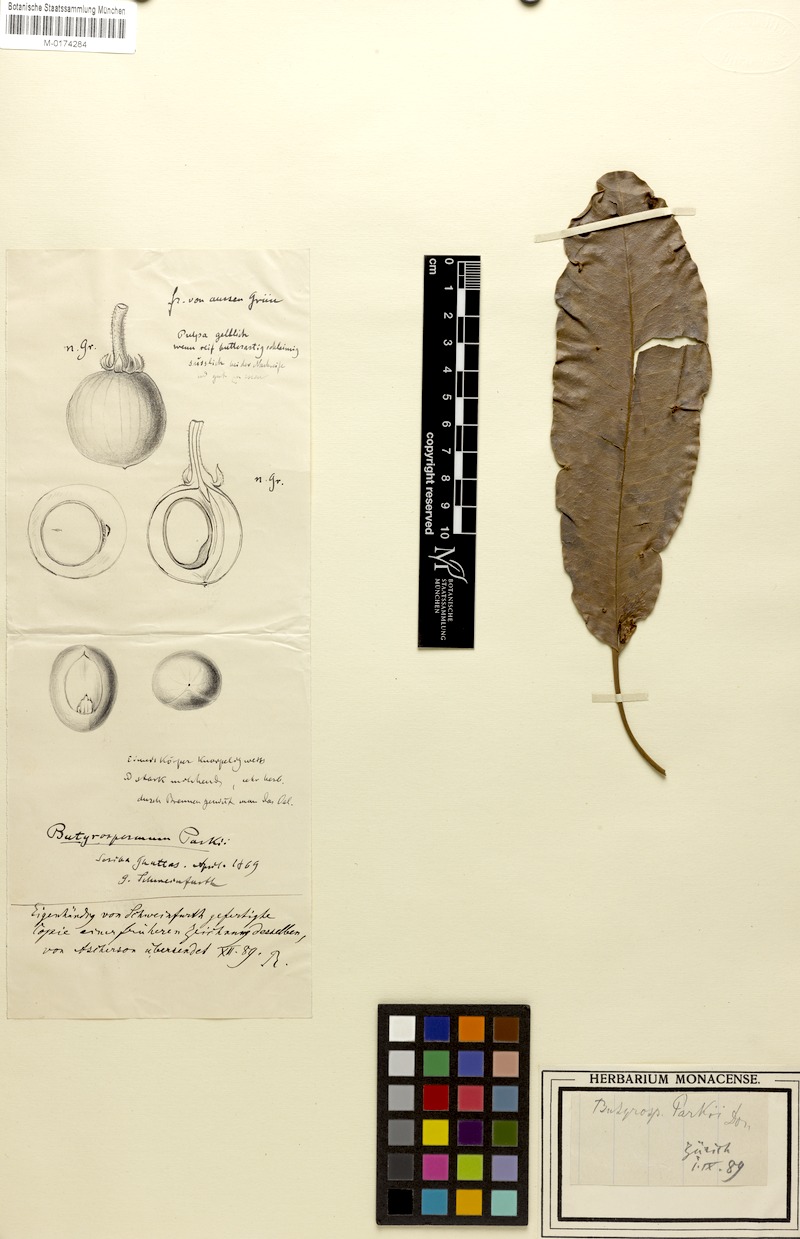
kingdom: Plantae
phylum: Tracheophyta
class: Magnoliopsida
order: Ericales
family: Sapotaceae
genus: Vitellaria
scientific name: Vitellaria paradoxa
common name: Shea butter tree
